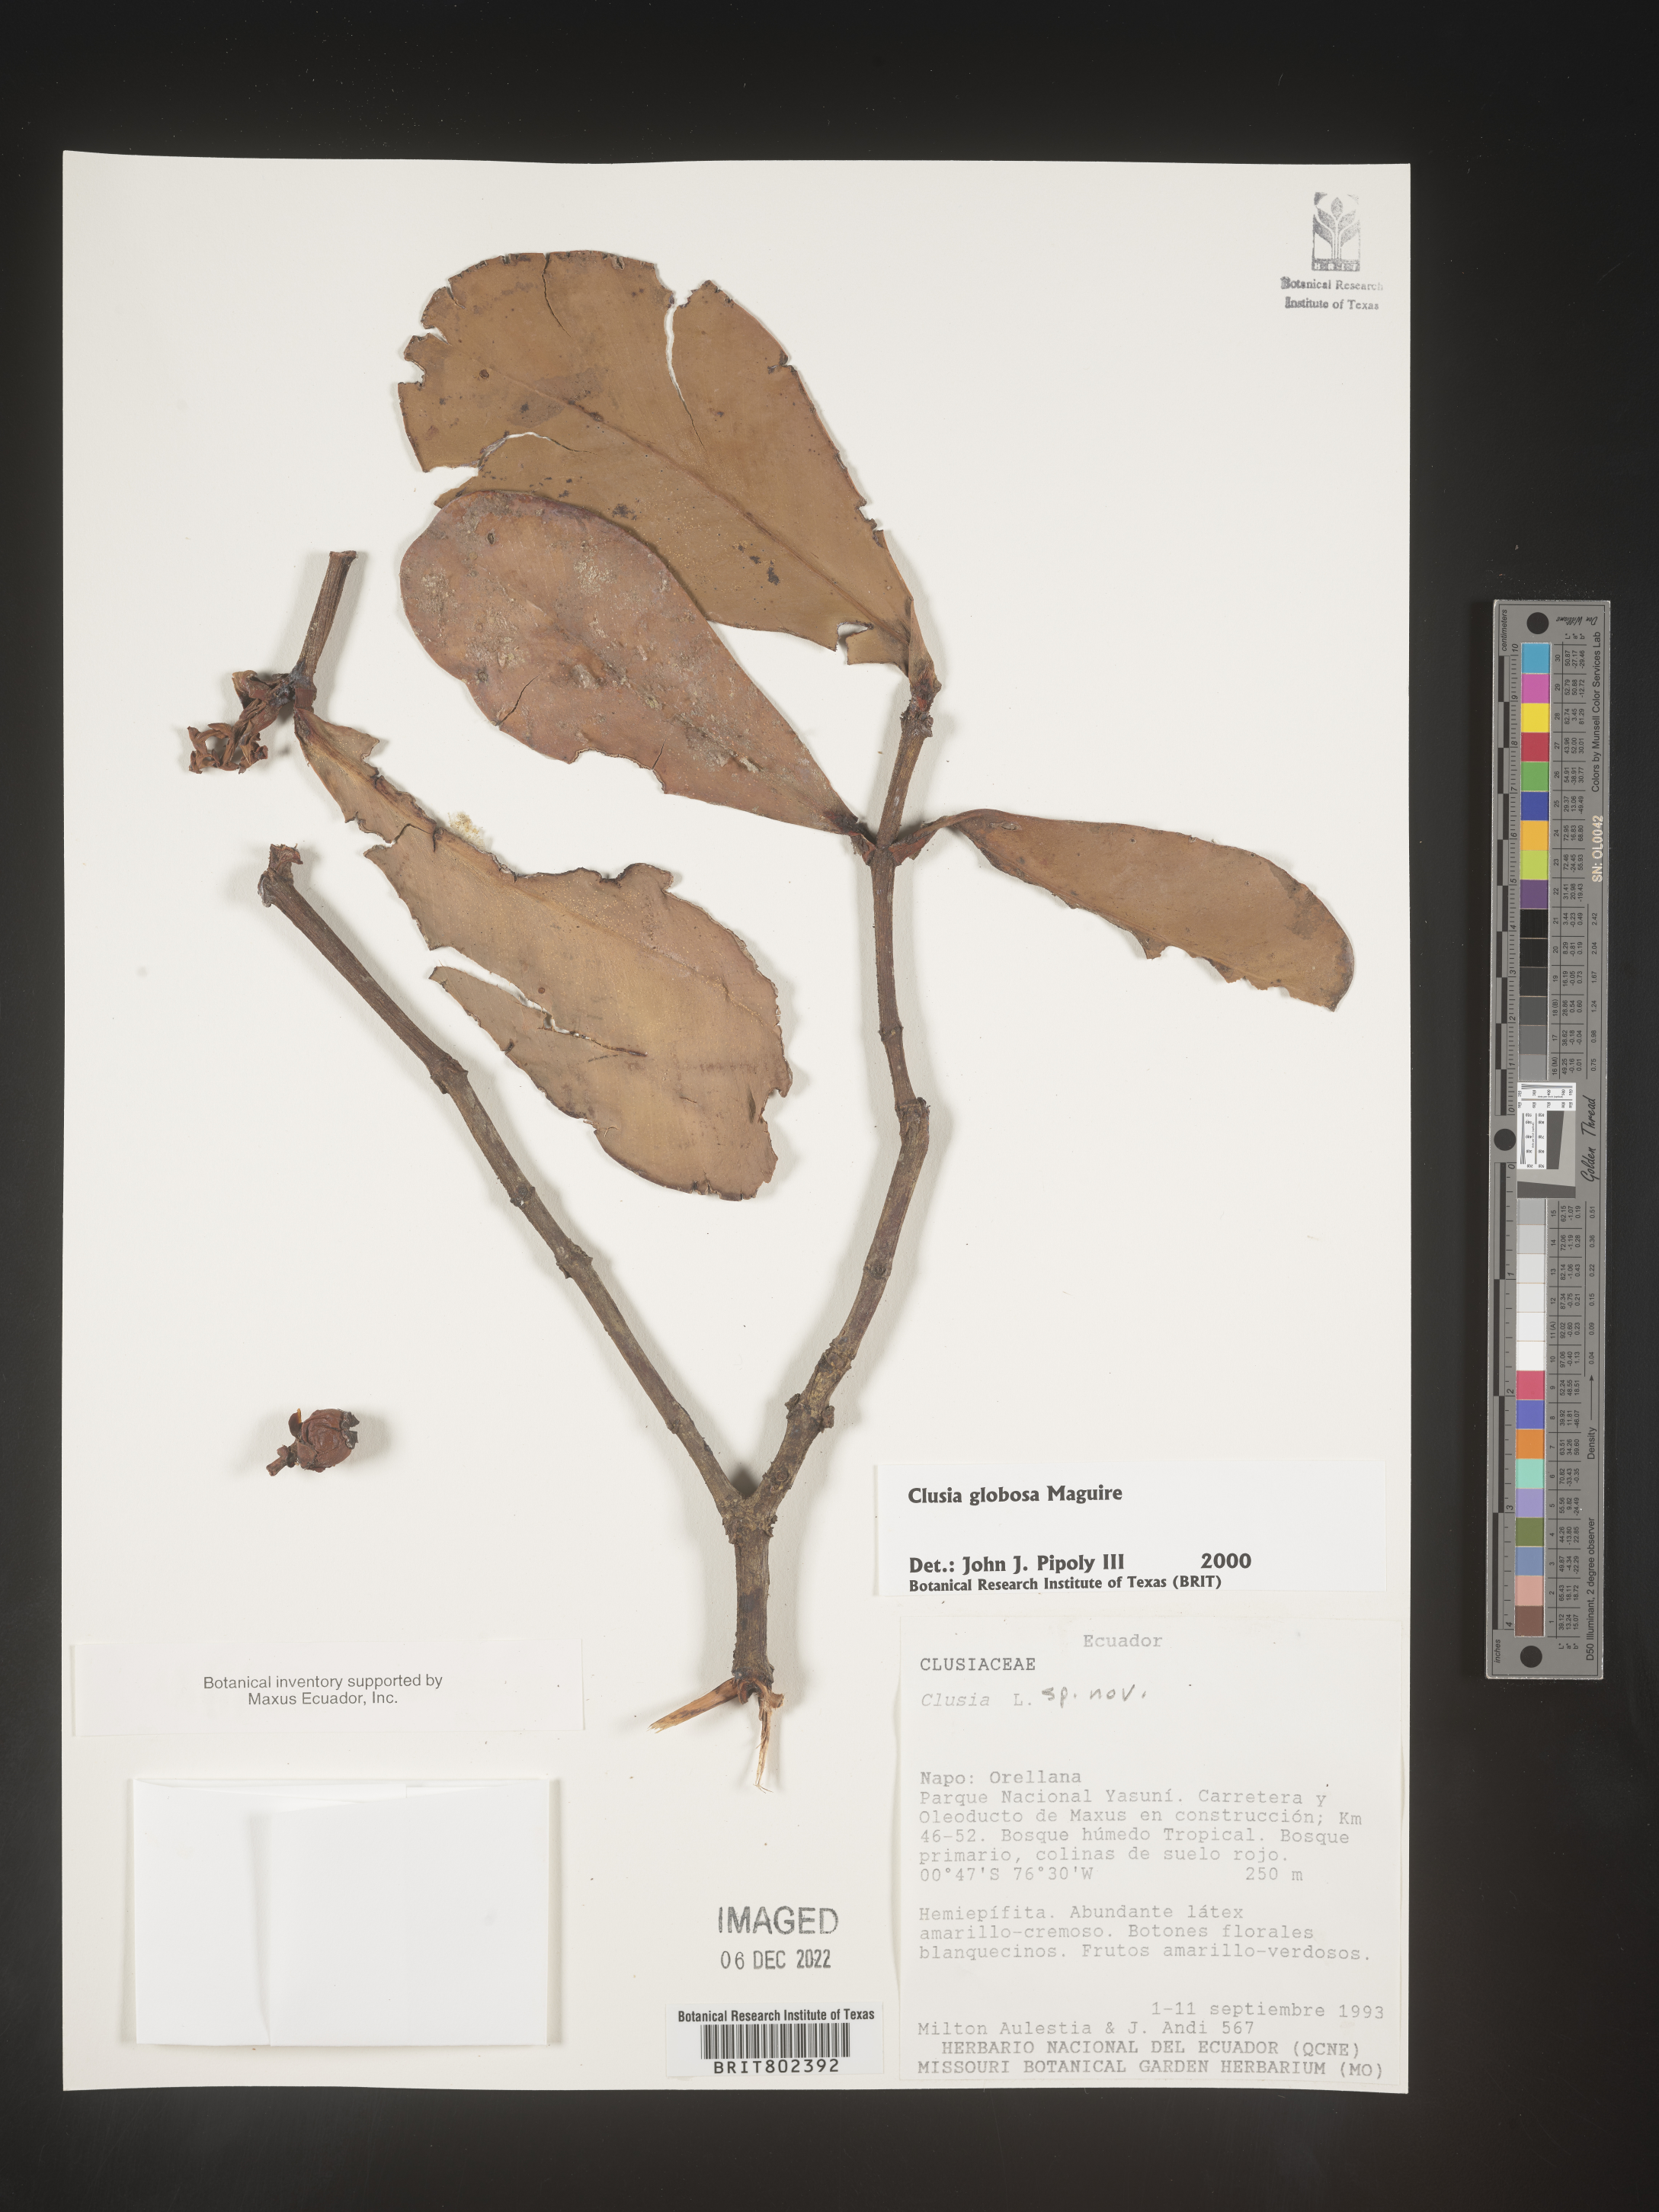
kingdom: Plantae
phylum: Tracheophyta
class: Magnoliopsida
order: Malpighiales
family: Clusiaceae
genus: Clusia
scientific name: Clusia
